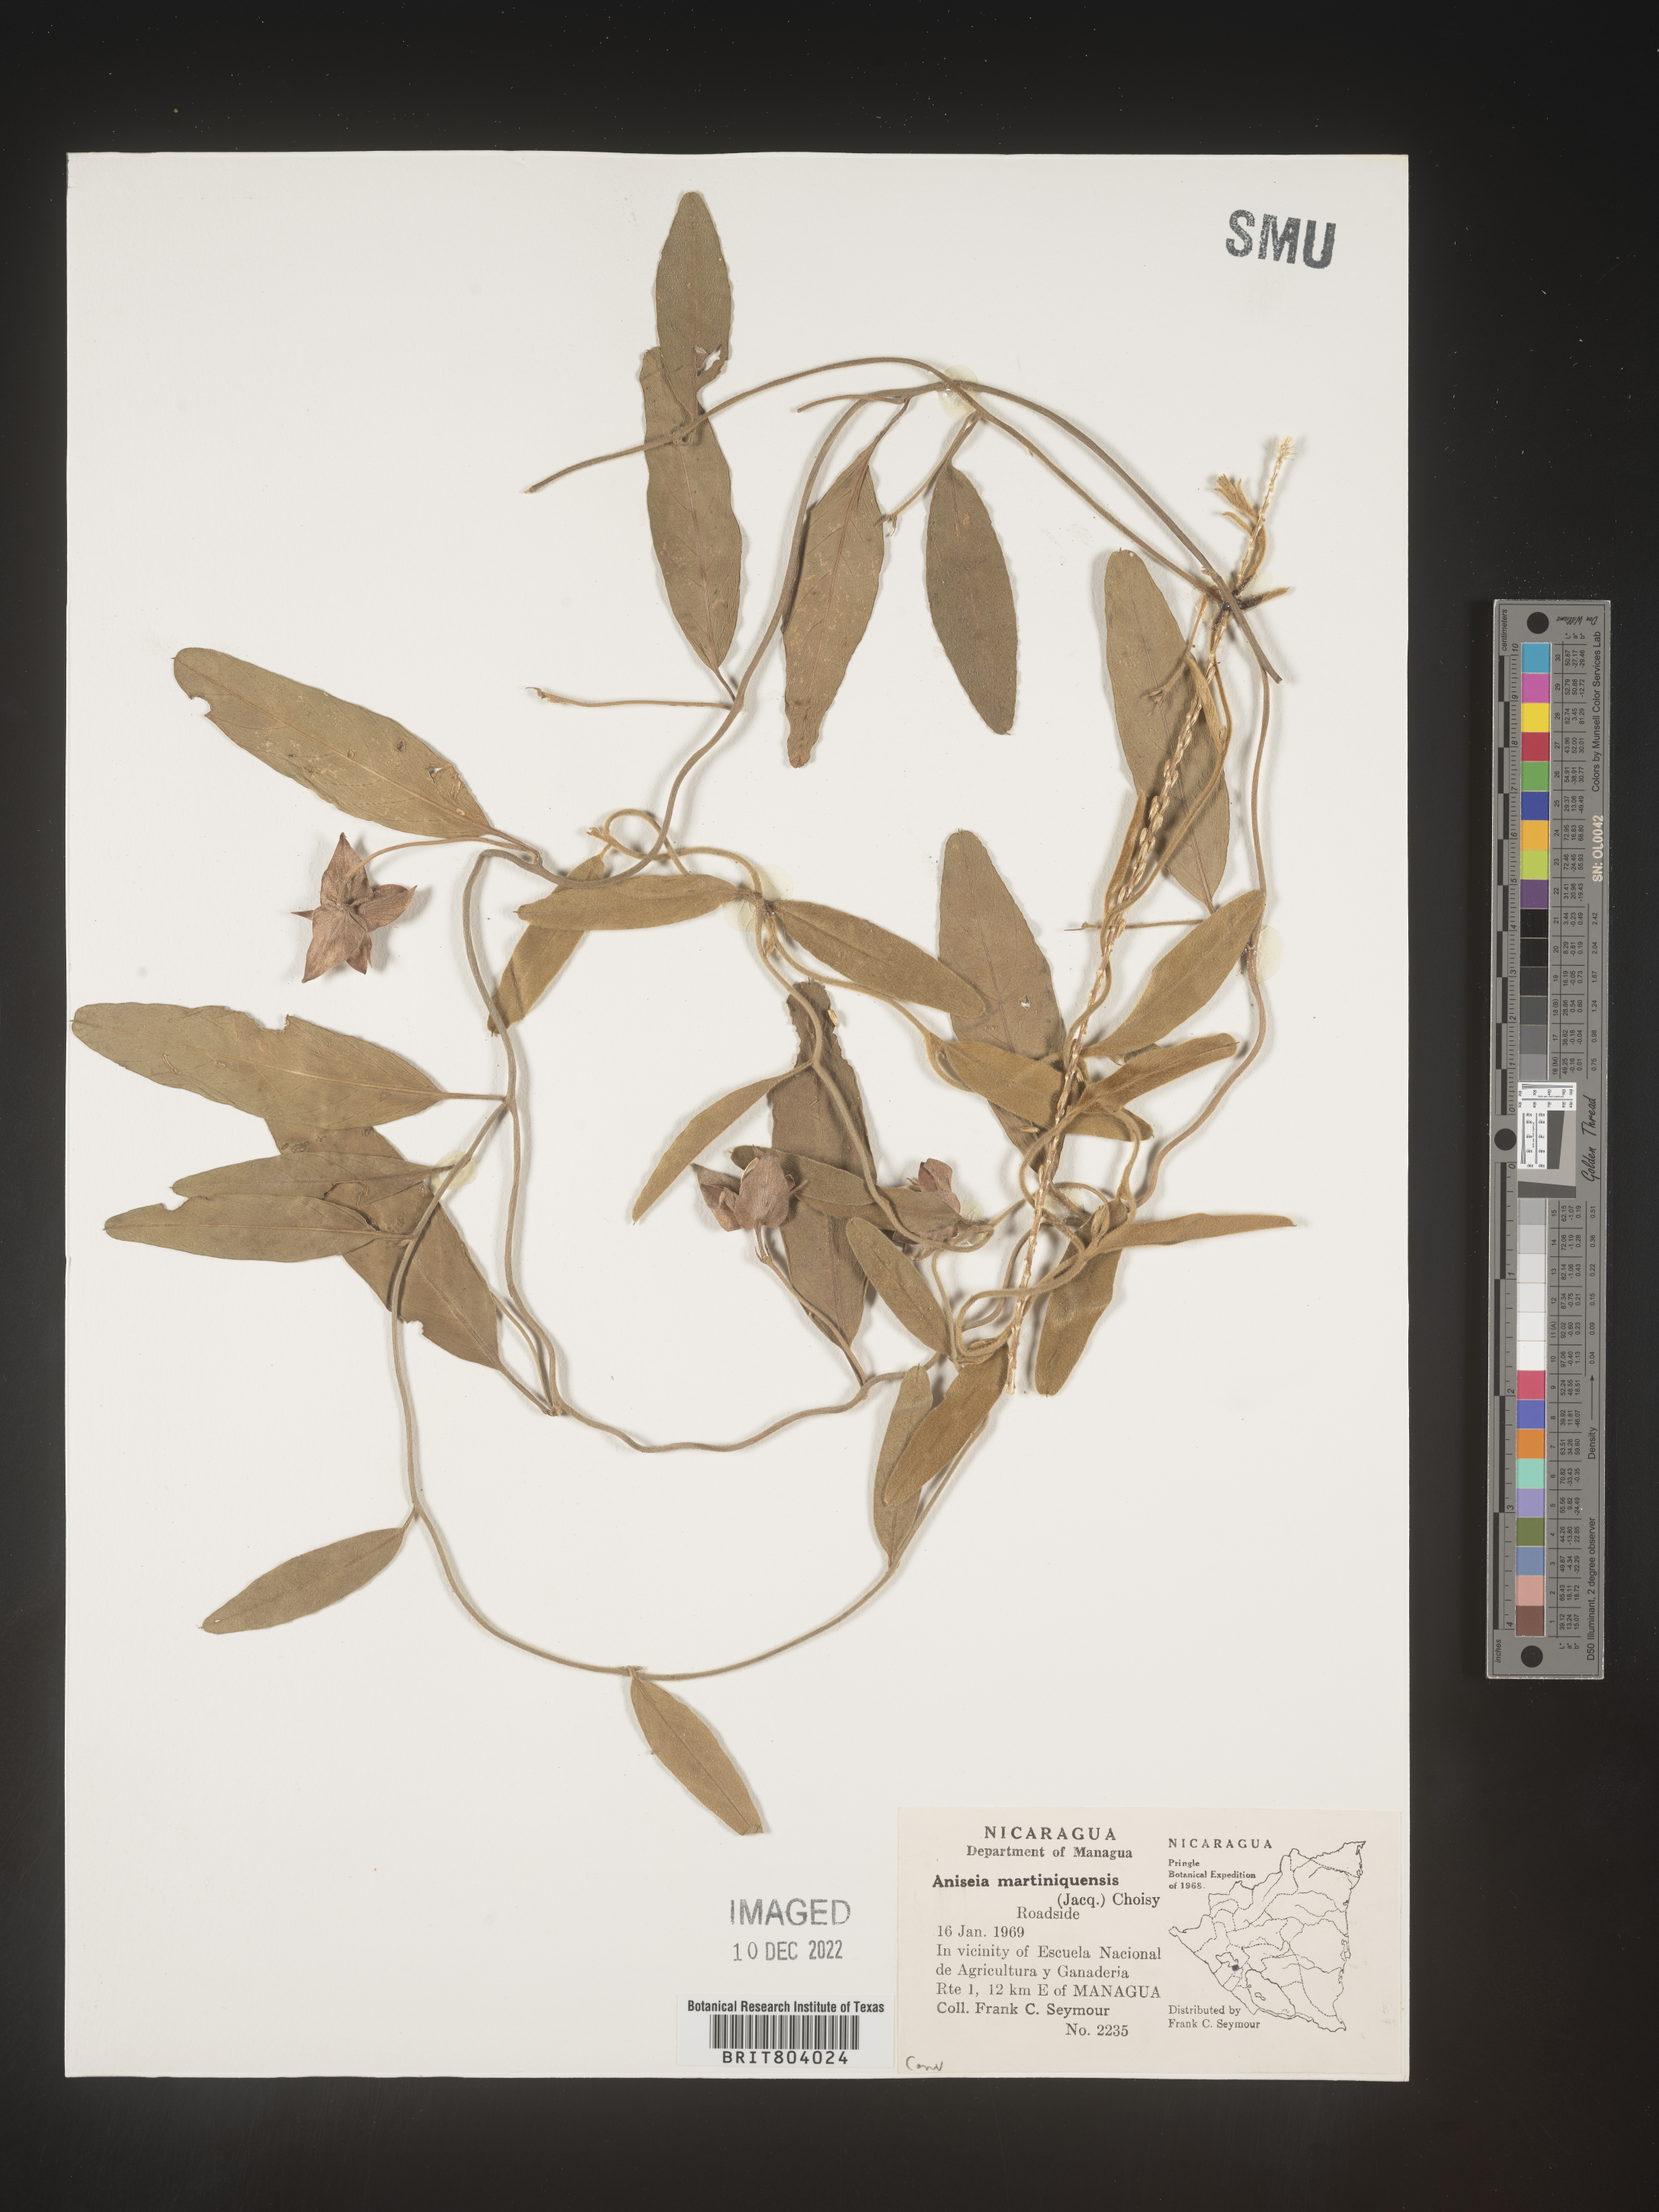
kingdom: Plantae
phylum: Tracheophyta
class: Magnoliopsida
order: Solanales
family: Convolvulaceae
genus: Aniseia
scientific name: Aniseia
